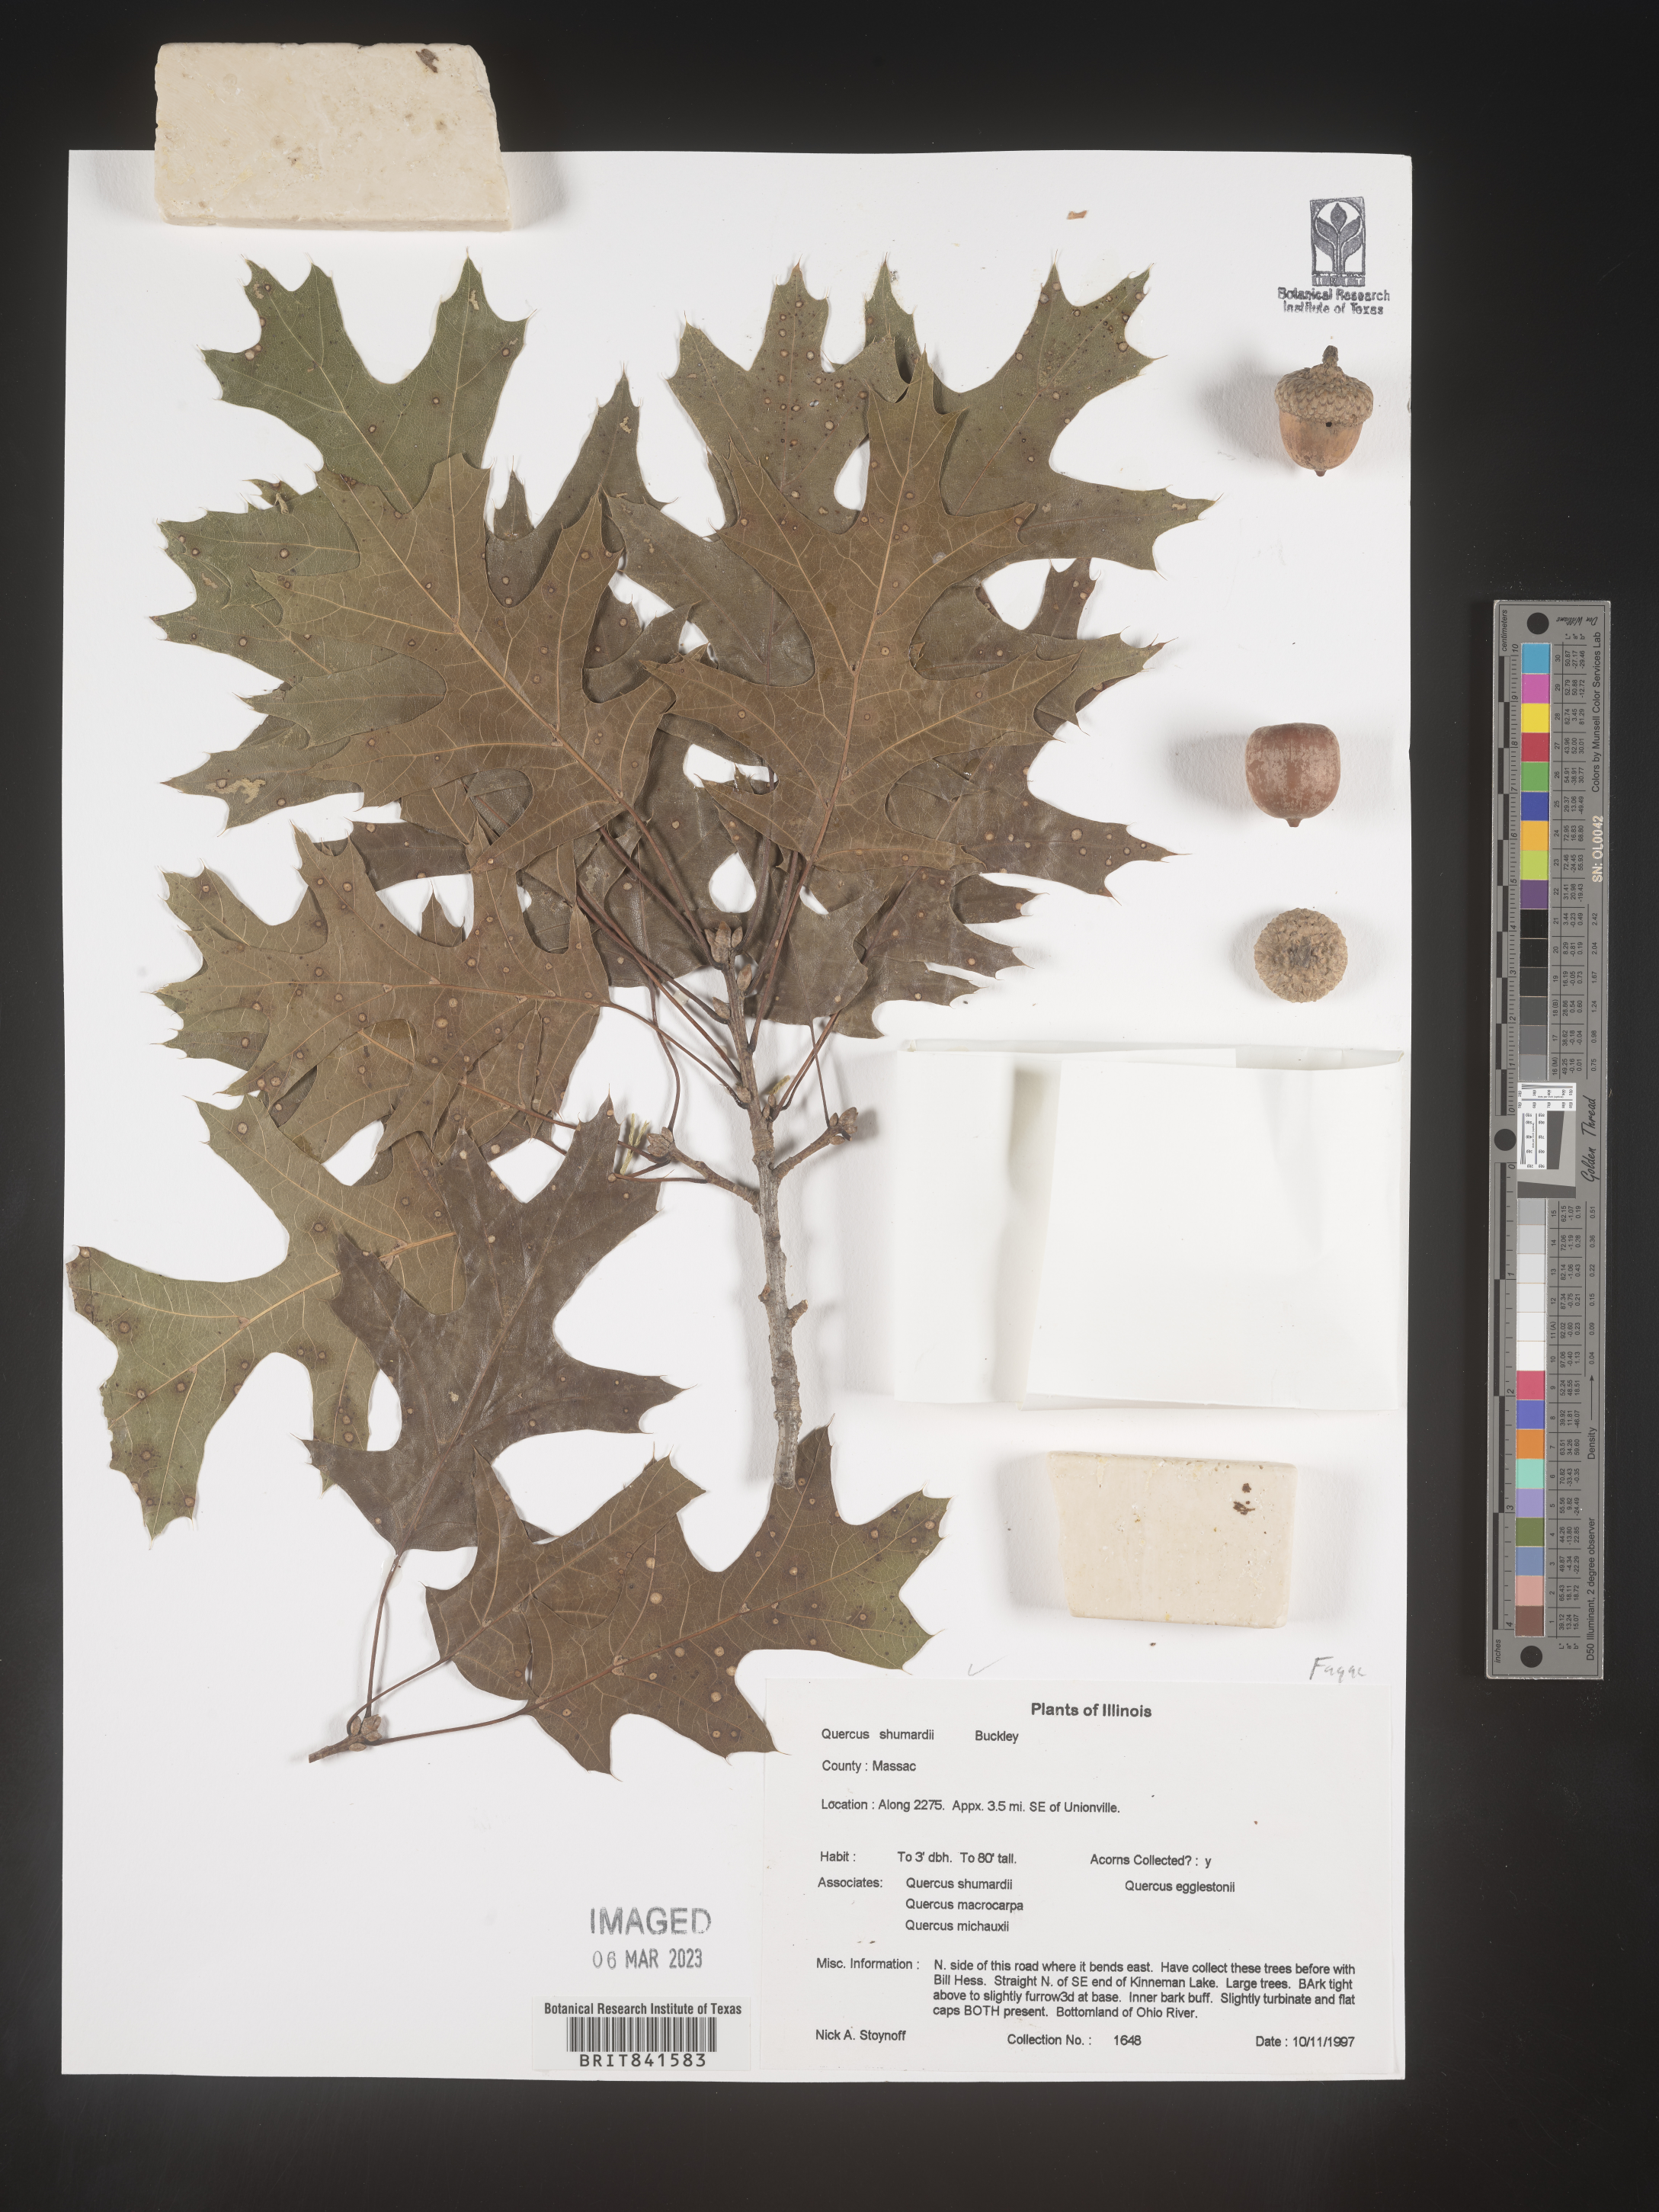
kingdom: Plantae
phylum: Tracheophyta
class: Magnoliopsida
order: Fagales
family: Fagaceae
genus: Quercus
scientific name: Quercus shumardii
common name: Shumard oak
